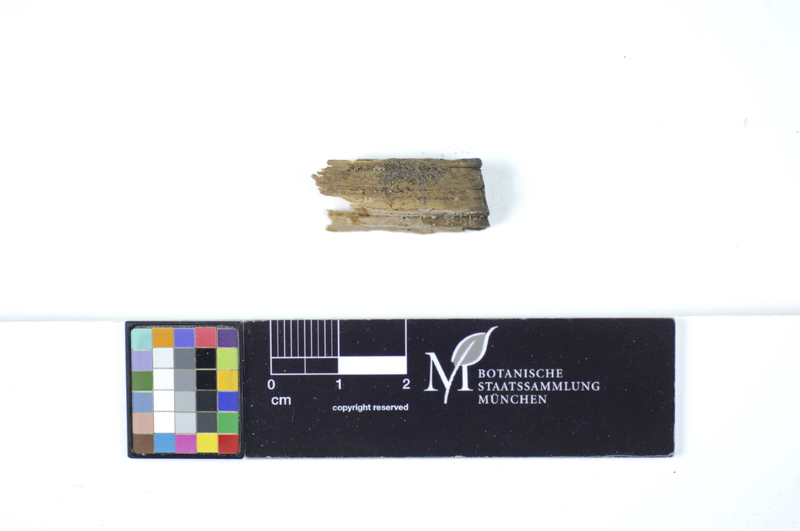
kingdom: Plantae
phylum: Tracheophyta
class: Pinopsida
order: Pinales
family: Pinaceae
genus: Pinus
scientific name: Pinus
